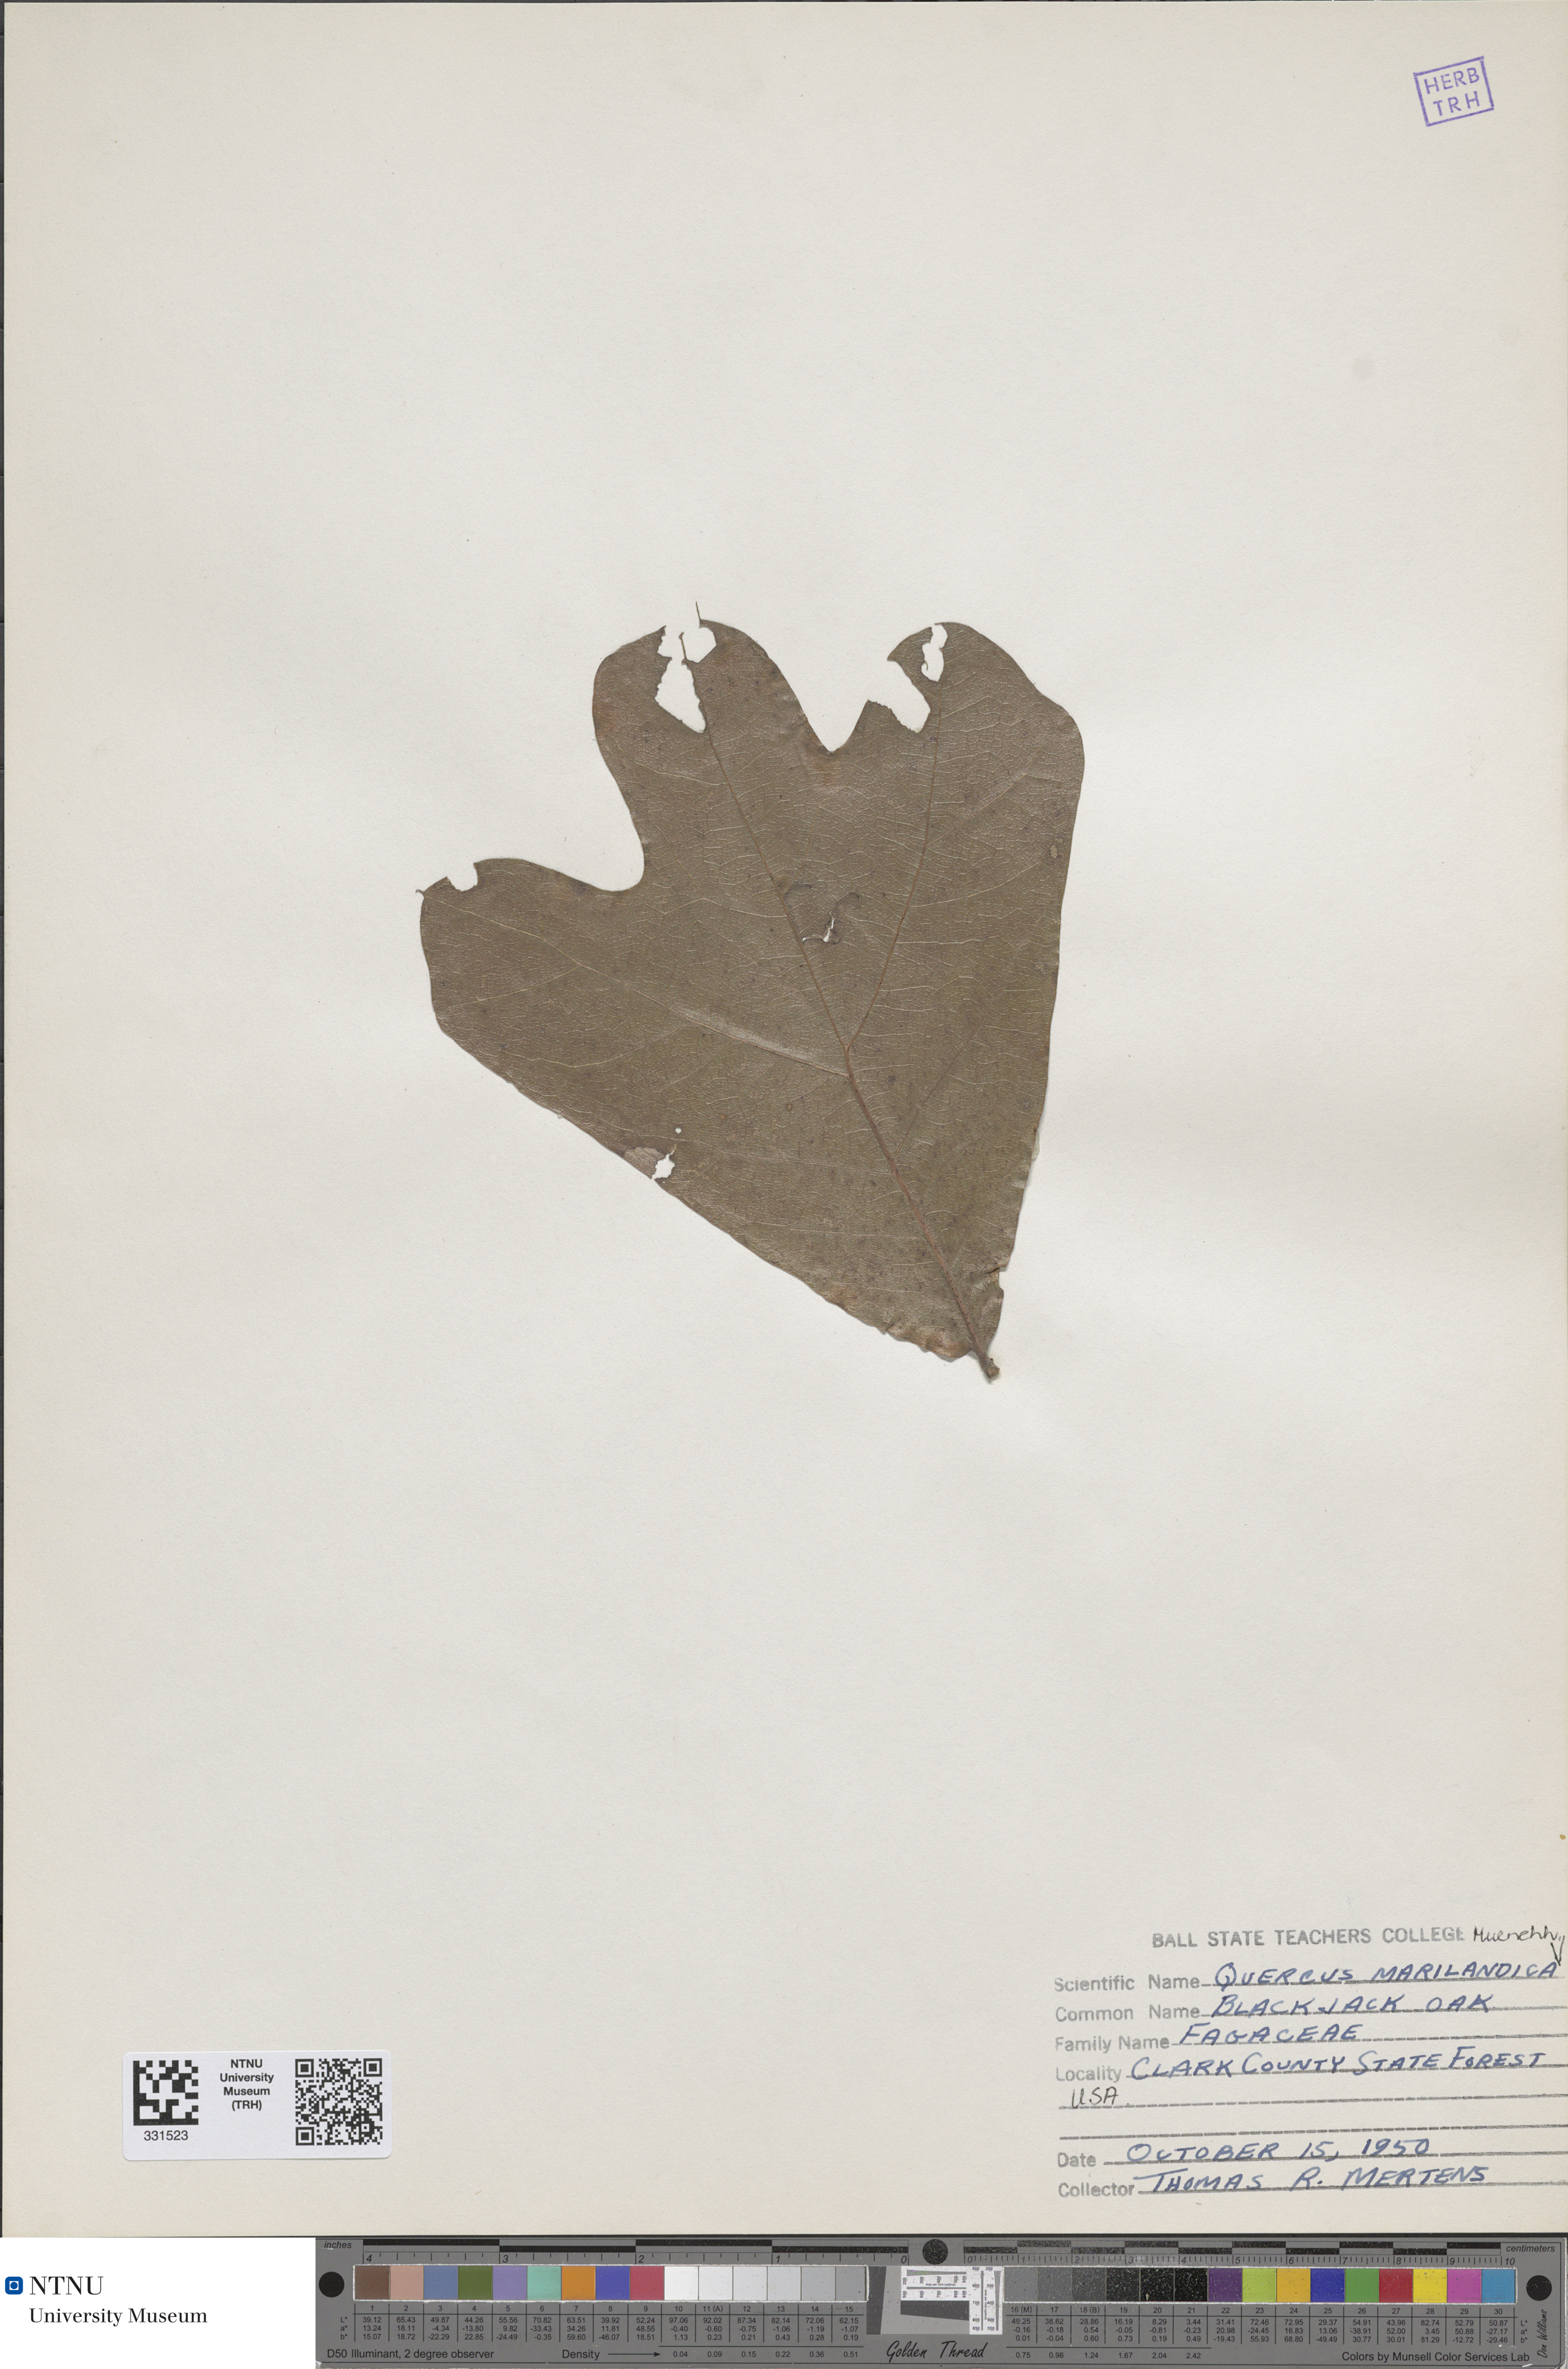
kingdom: Plantae
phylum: Tracheophyta
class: Magnoliopsida
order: Fagales
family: Fagaceae
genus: Quercus
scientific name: Quercus marilandica
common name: Blackjack oak
